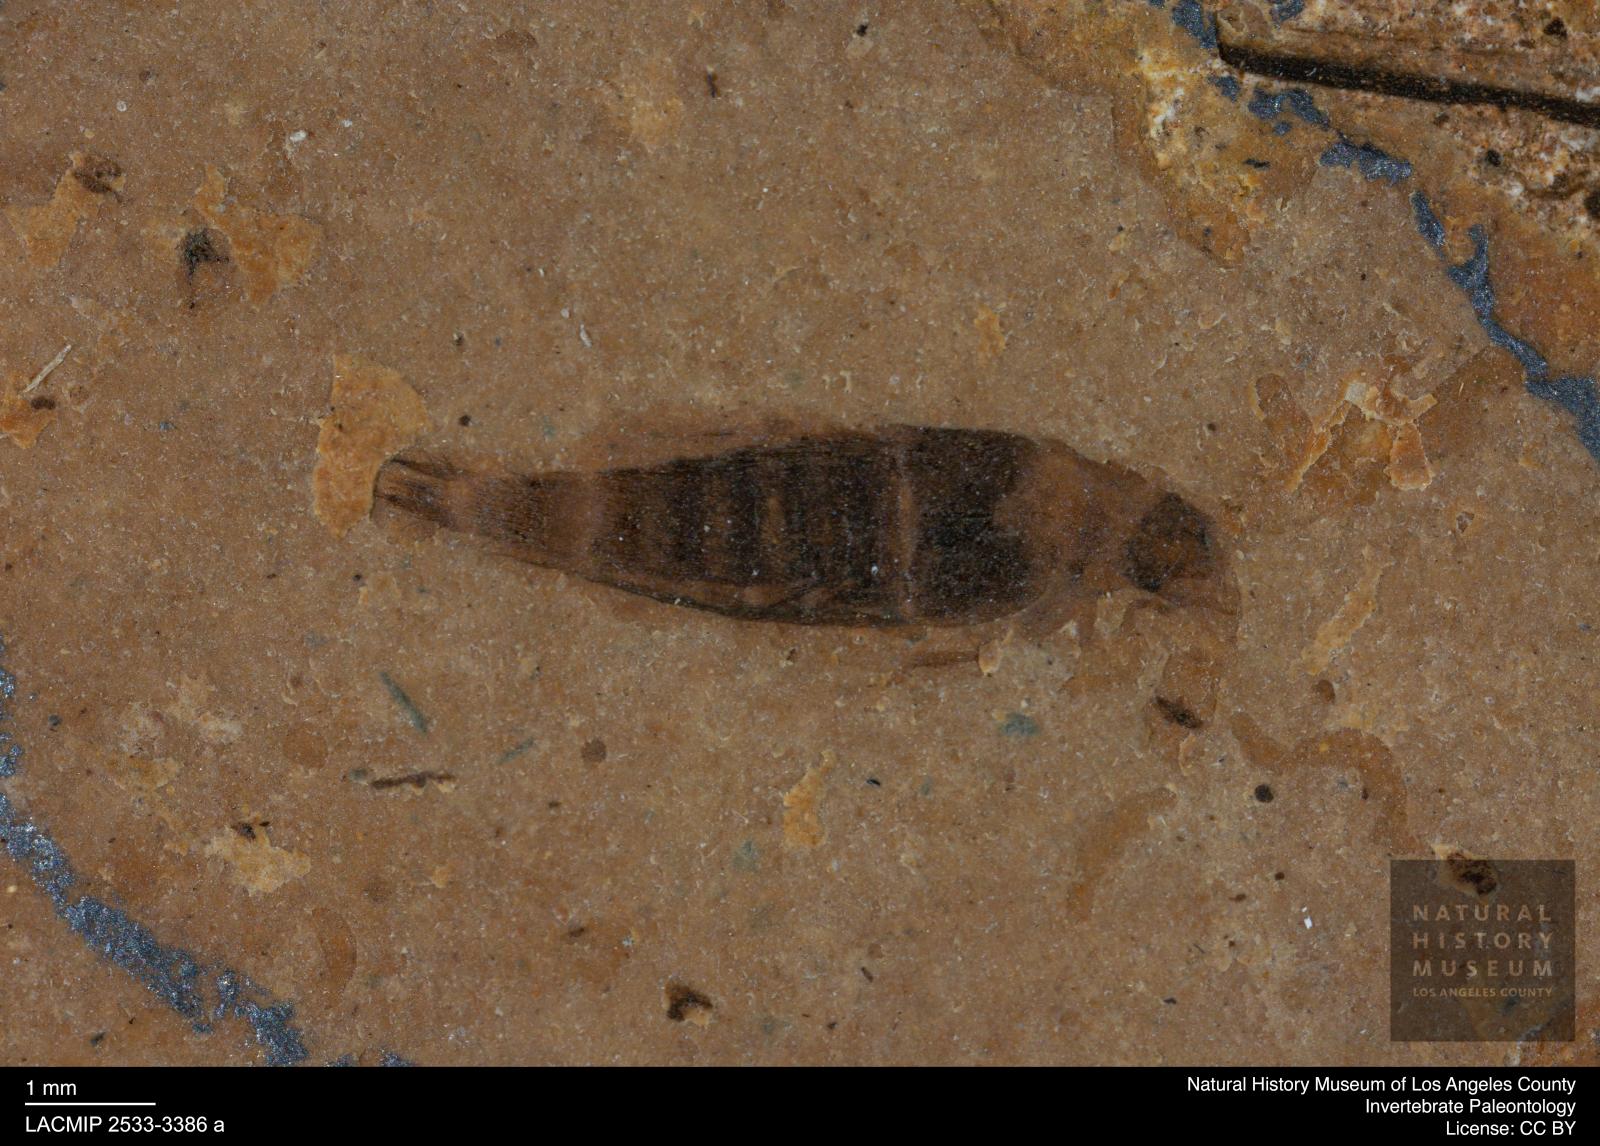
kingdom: Animalia
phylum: Arthropoda
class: Insecta
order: Coleoptera
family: Staphylinidae
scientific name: Staphylinidae
